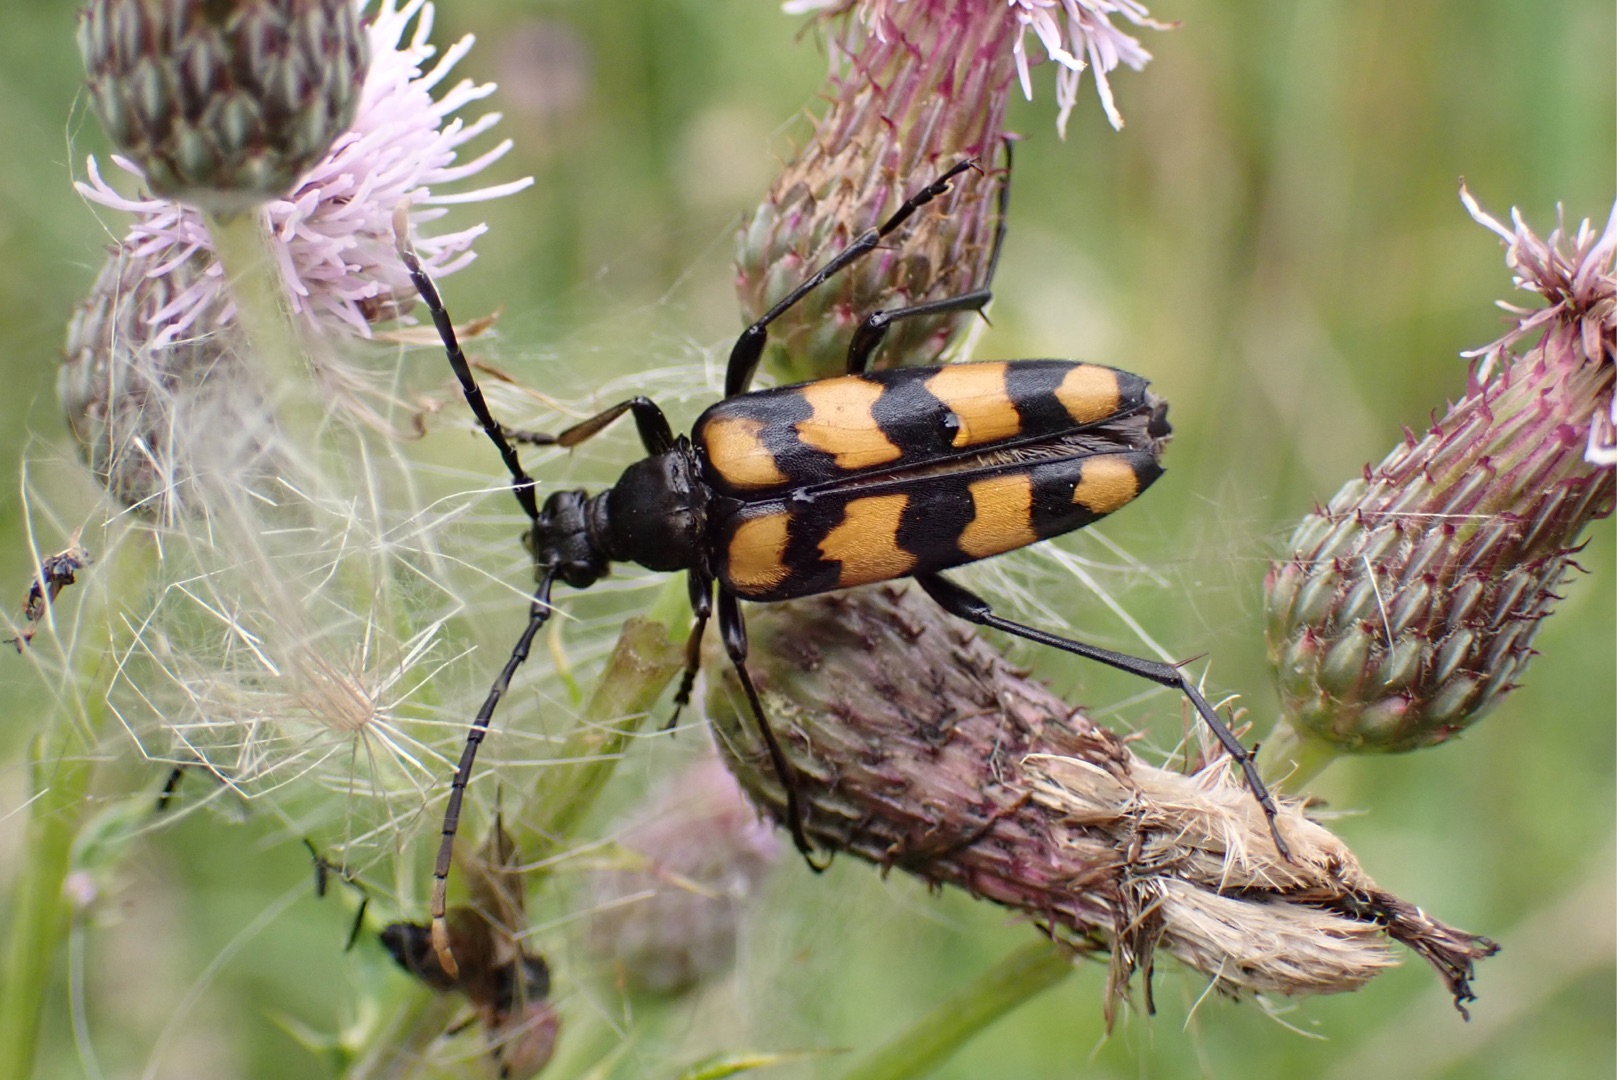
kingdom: Animalia
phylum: Arthropoda
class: Insecta
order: Coleoptera
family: Cerambycidae
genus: Leptura
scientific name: Leptura quadrifasciata
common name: Firebåndet blomsterbuk
